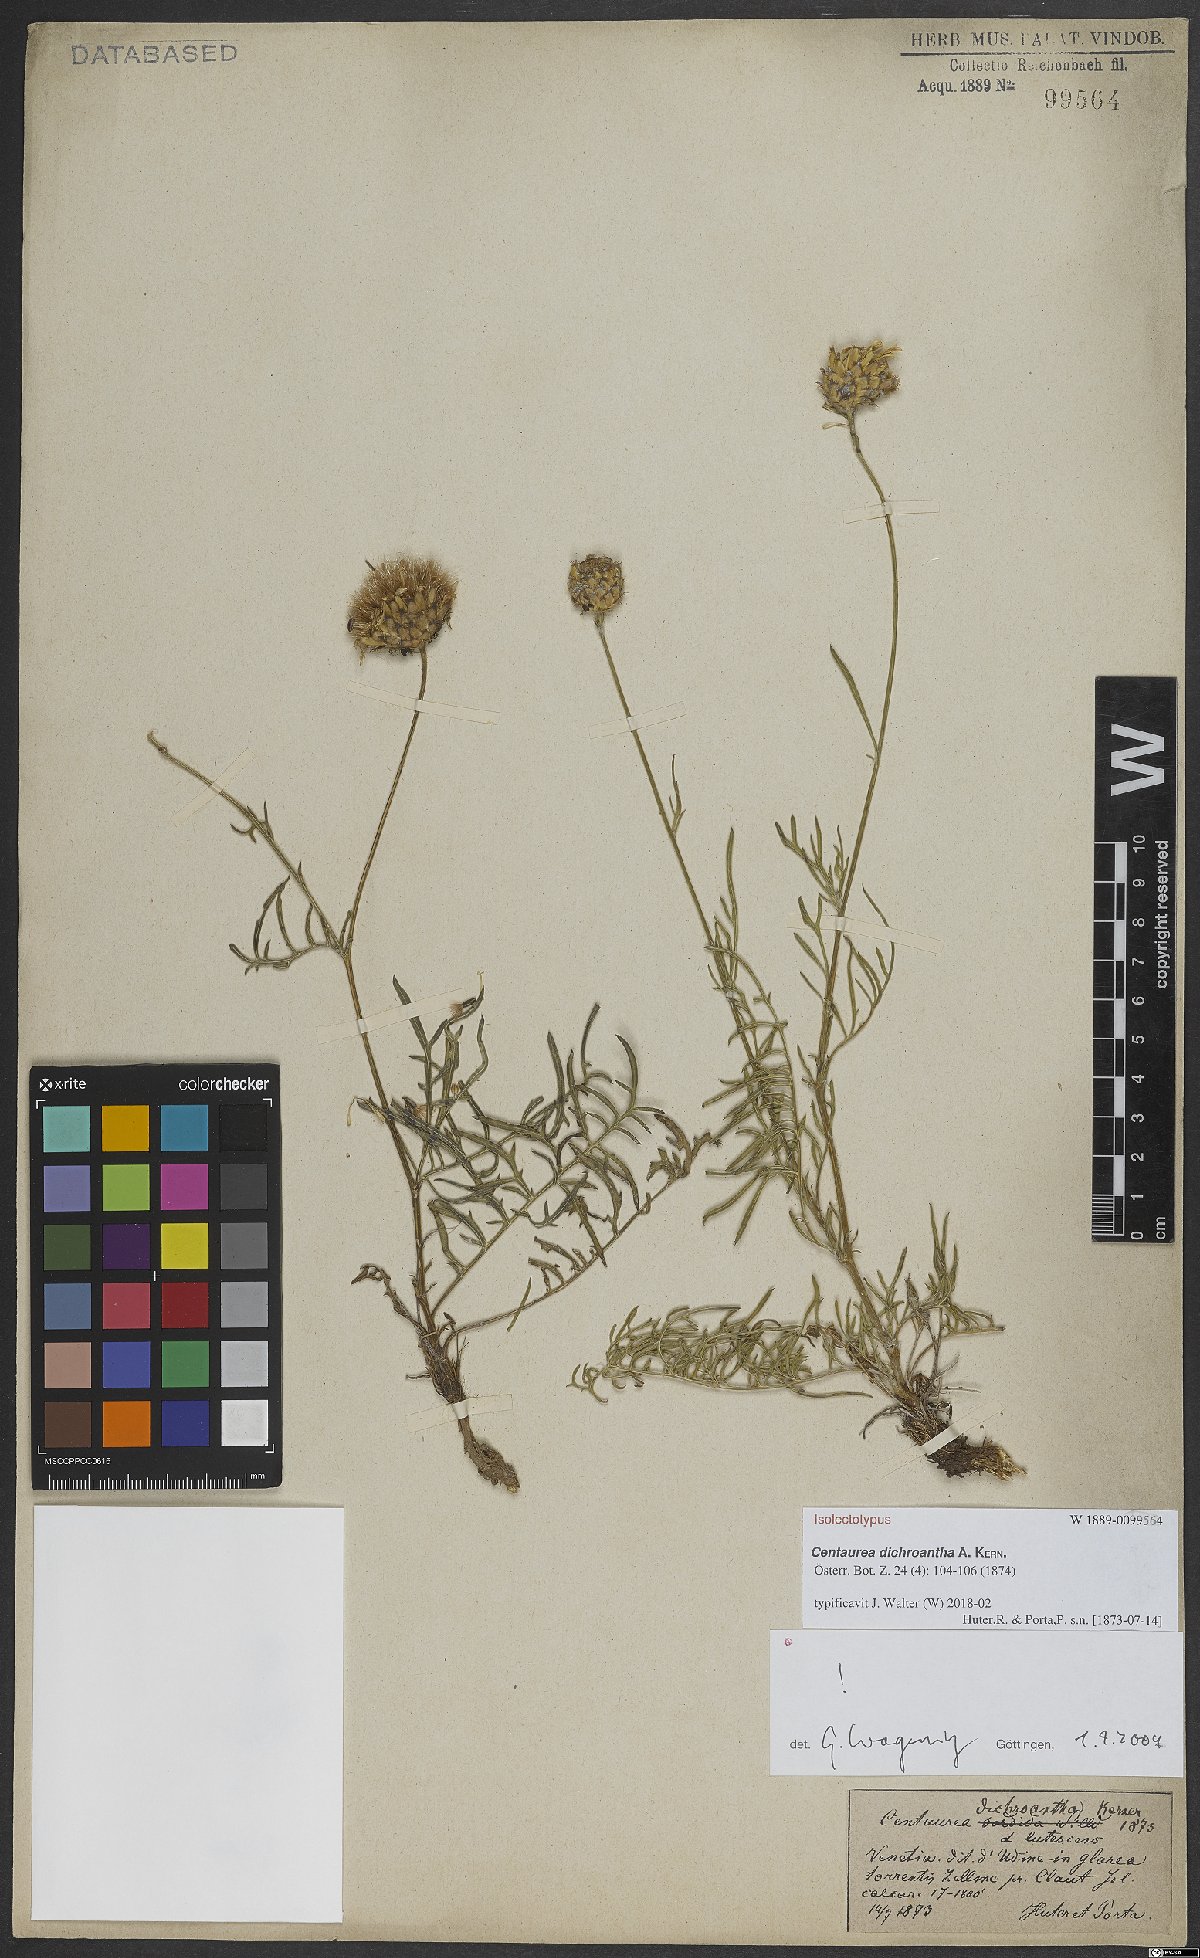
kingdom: Plantae
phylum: Tracheophyta
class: Magnoliopsida
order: Asterales
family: Asteraceae
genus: Centaurea
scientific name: Centaurea dichroantha
